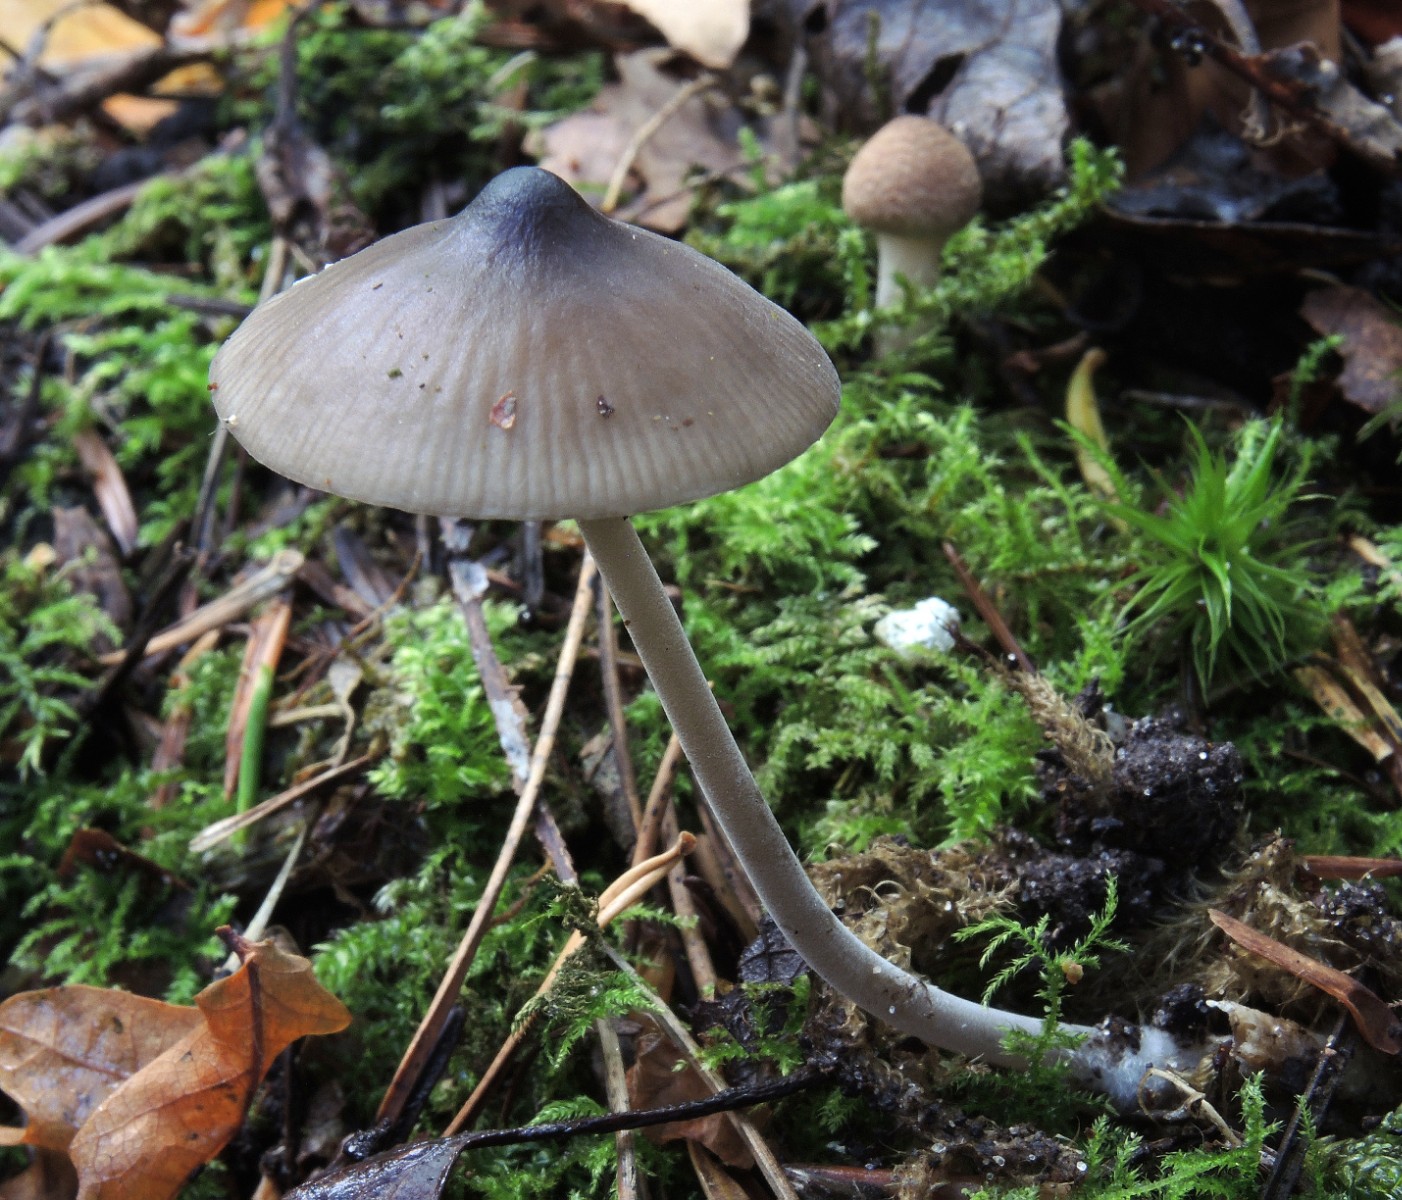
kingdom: Fungi
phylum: Basidiomycota
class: Agaricomycetes
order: Agaricales
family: Tricholomataceae
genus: Mycenella
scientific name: Mycenella bryophila
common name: mos-dughat
